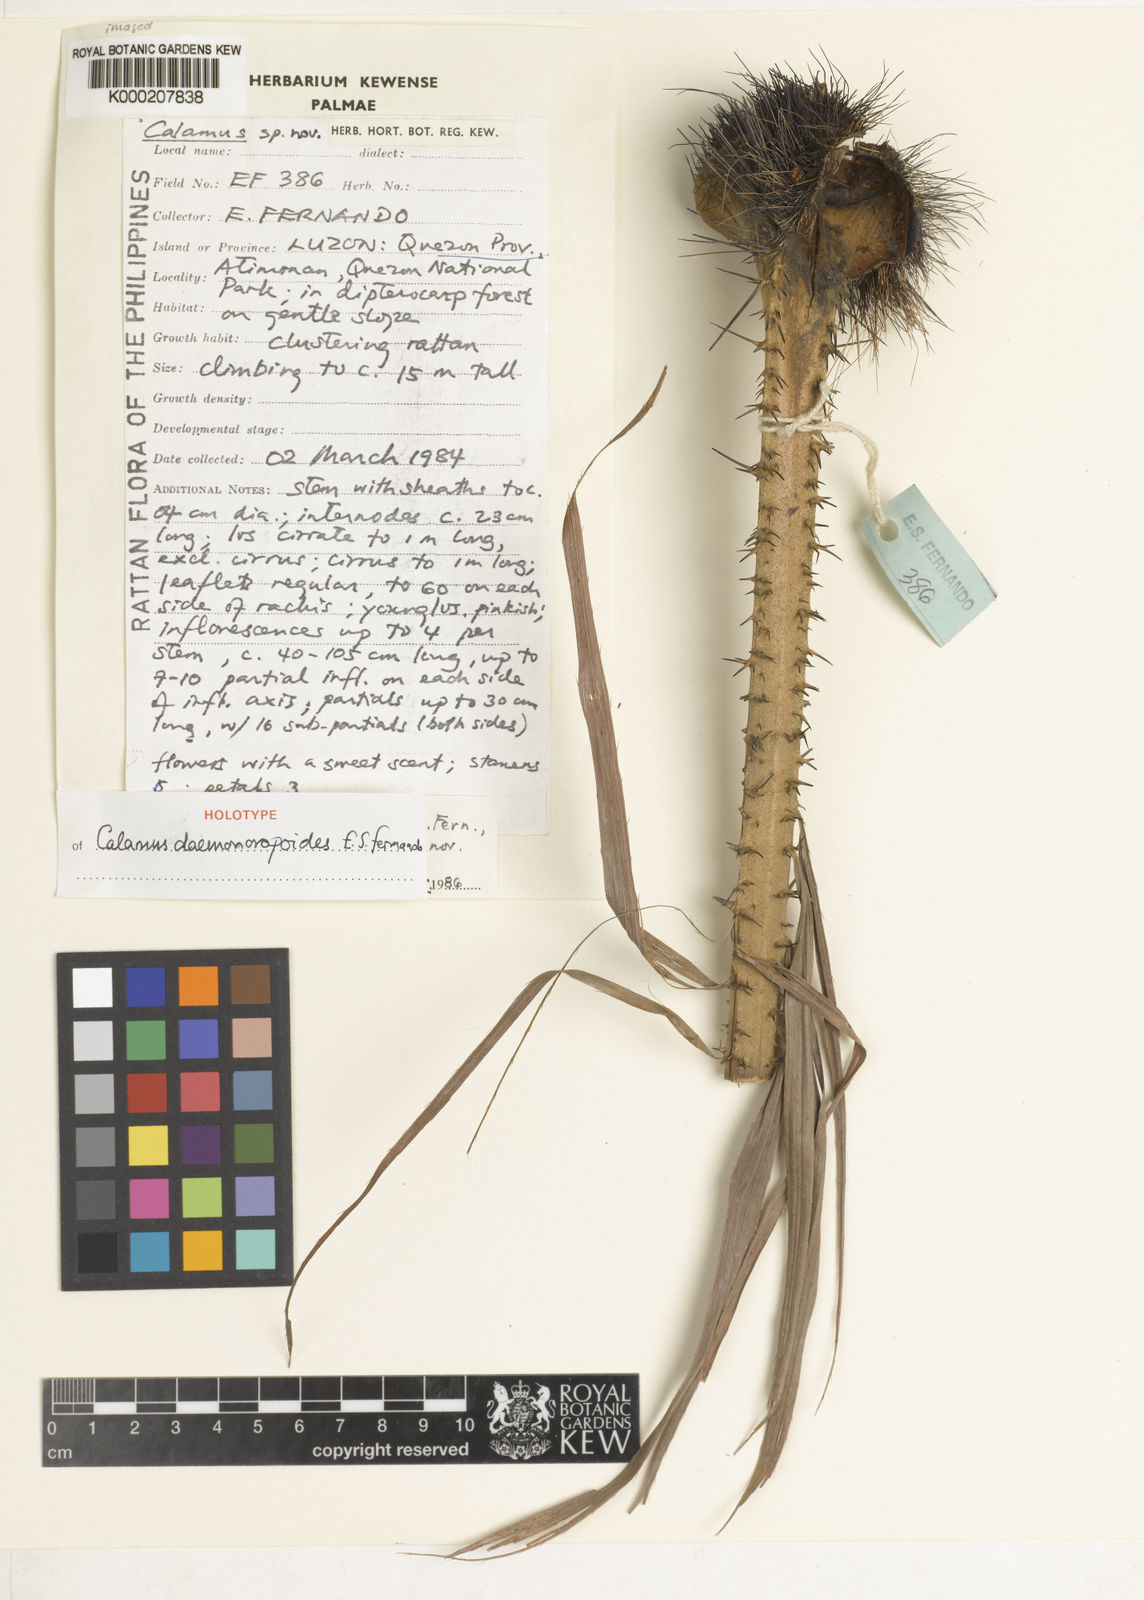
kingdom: Plantae
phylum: Tracheophyta
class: Liliopsida
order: Arecales
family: Arecaceae
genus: Calamus
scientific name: Calamus erinaceus
